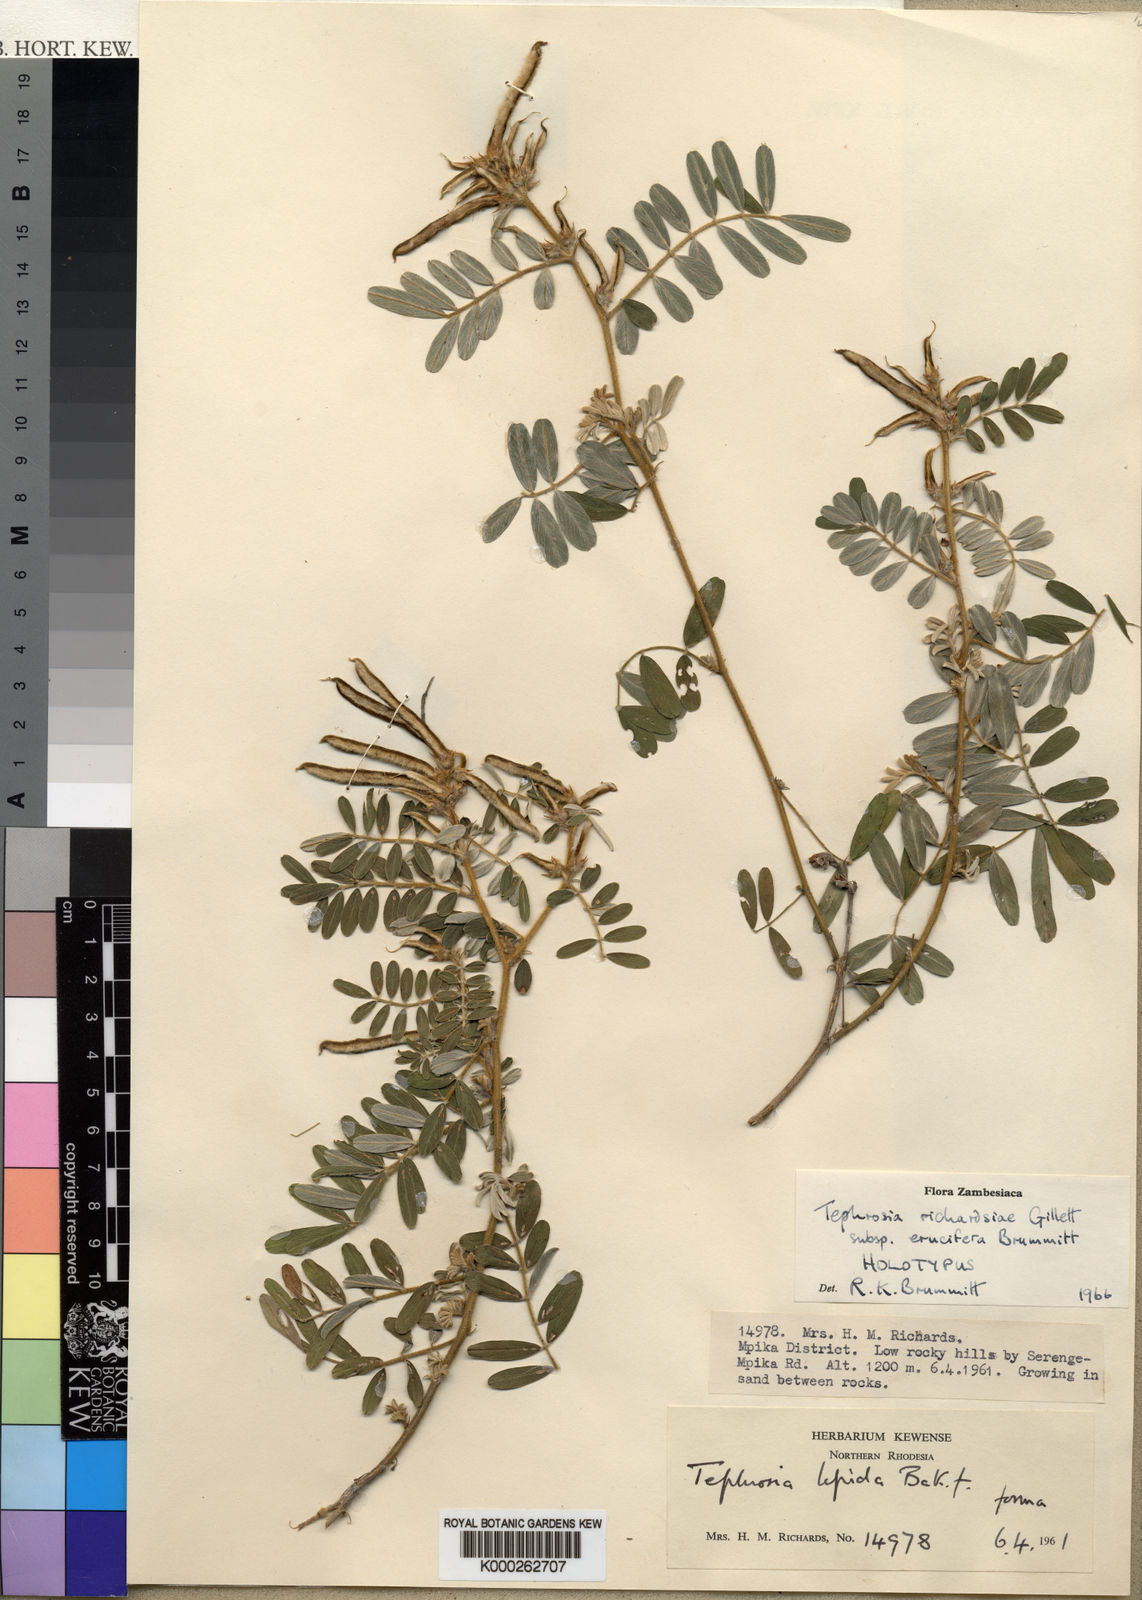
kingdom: Plantae
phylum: Tracheophyta
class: Magnoliopsida
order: Fabales
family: Fabaceae
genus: Tephrosia
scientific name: Tephrosia richardsiae
